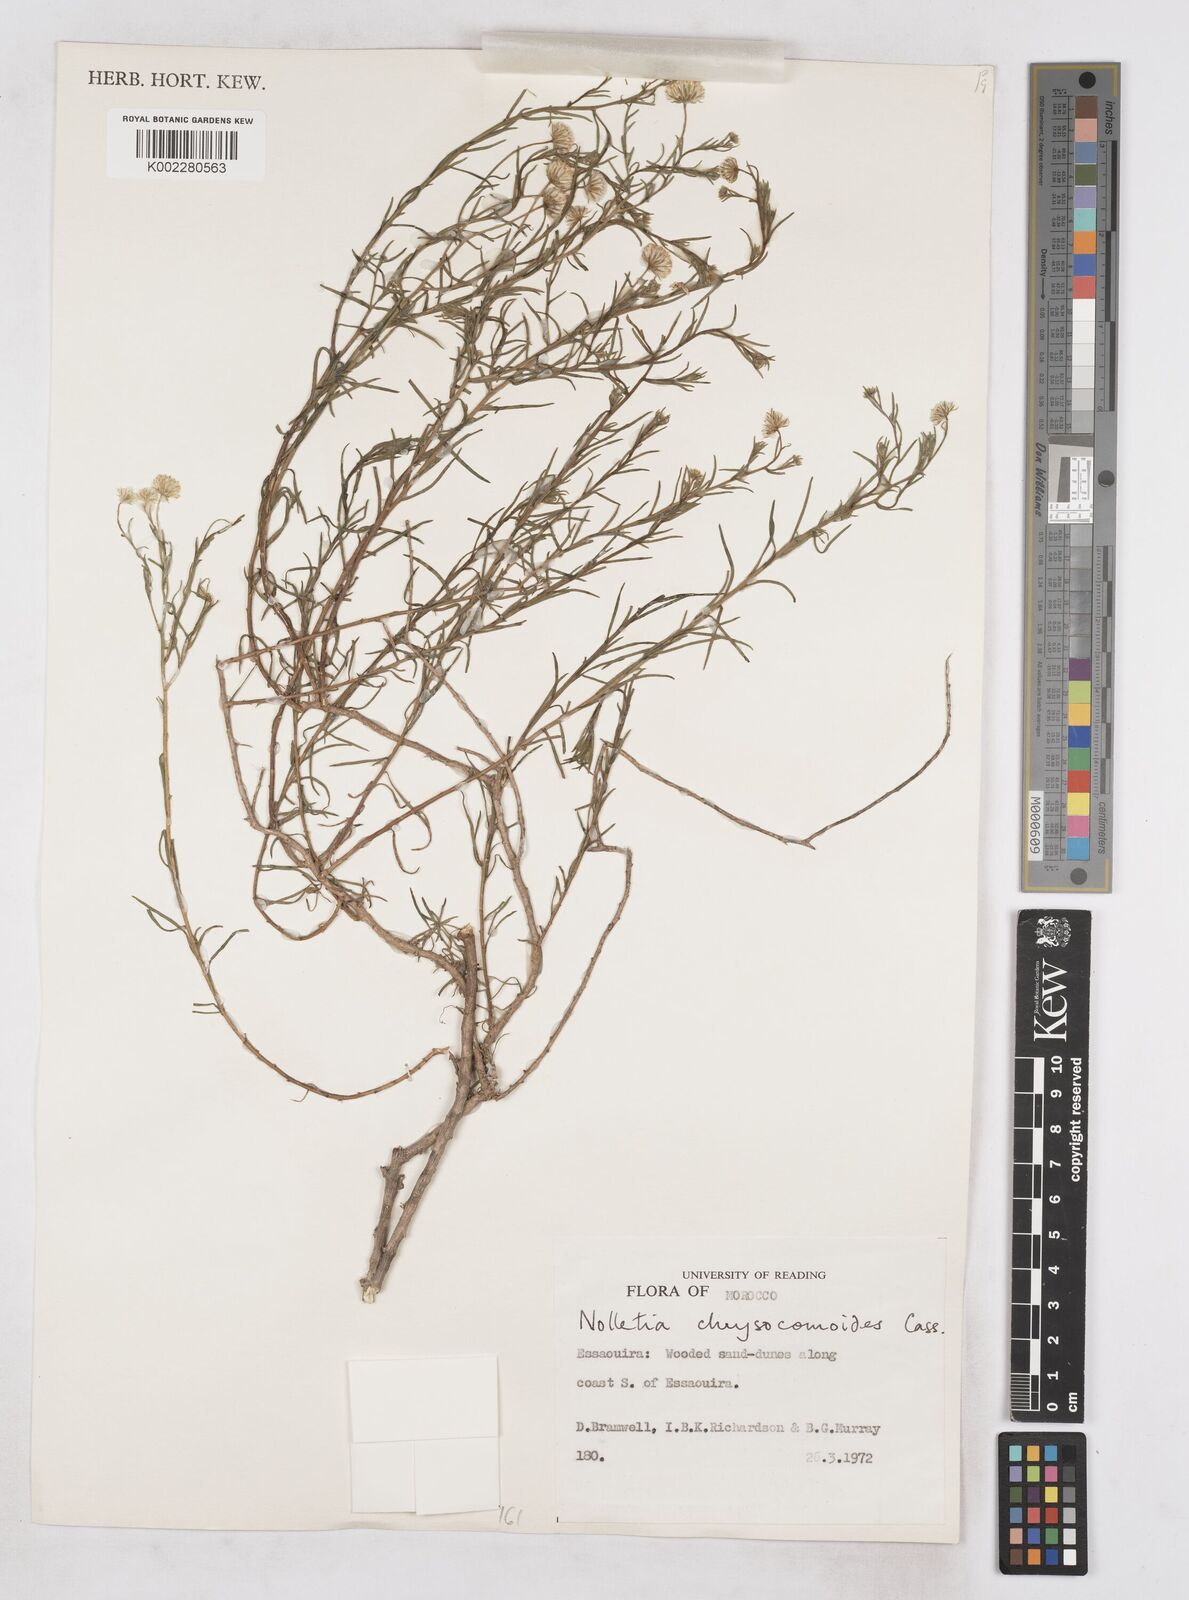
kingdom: Plantae
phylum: Tracheophyta
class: Magnoliopsida
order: Asterales
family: Asteraceae
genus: Nolletia
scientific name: Nolletia chrysocomoides
